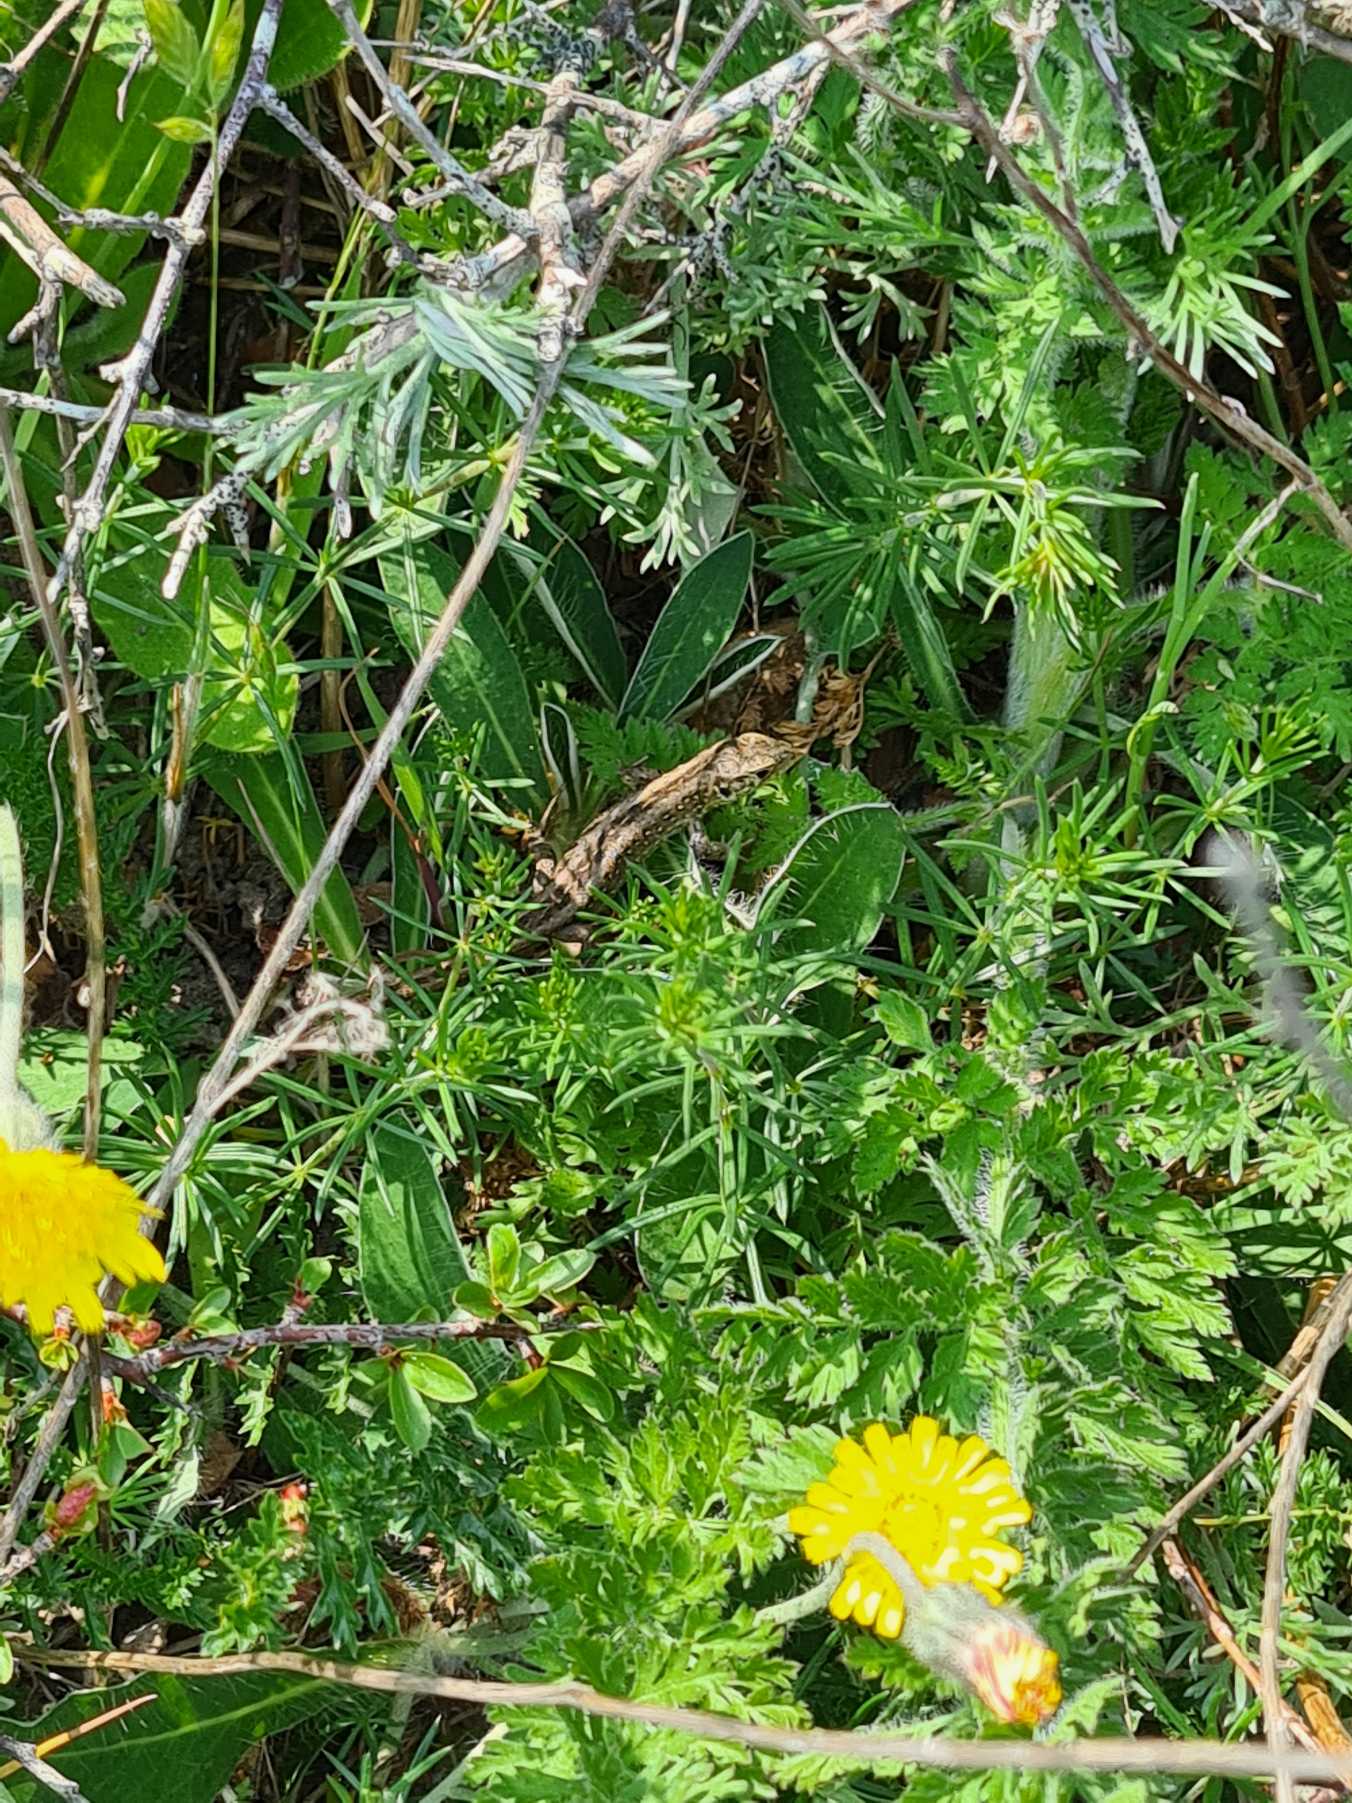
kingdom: Animalia
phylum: Chordata
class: Squamata
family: Lacertidae
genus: Lacerta
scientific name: Lacerta agilis
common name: Markfirben
